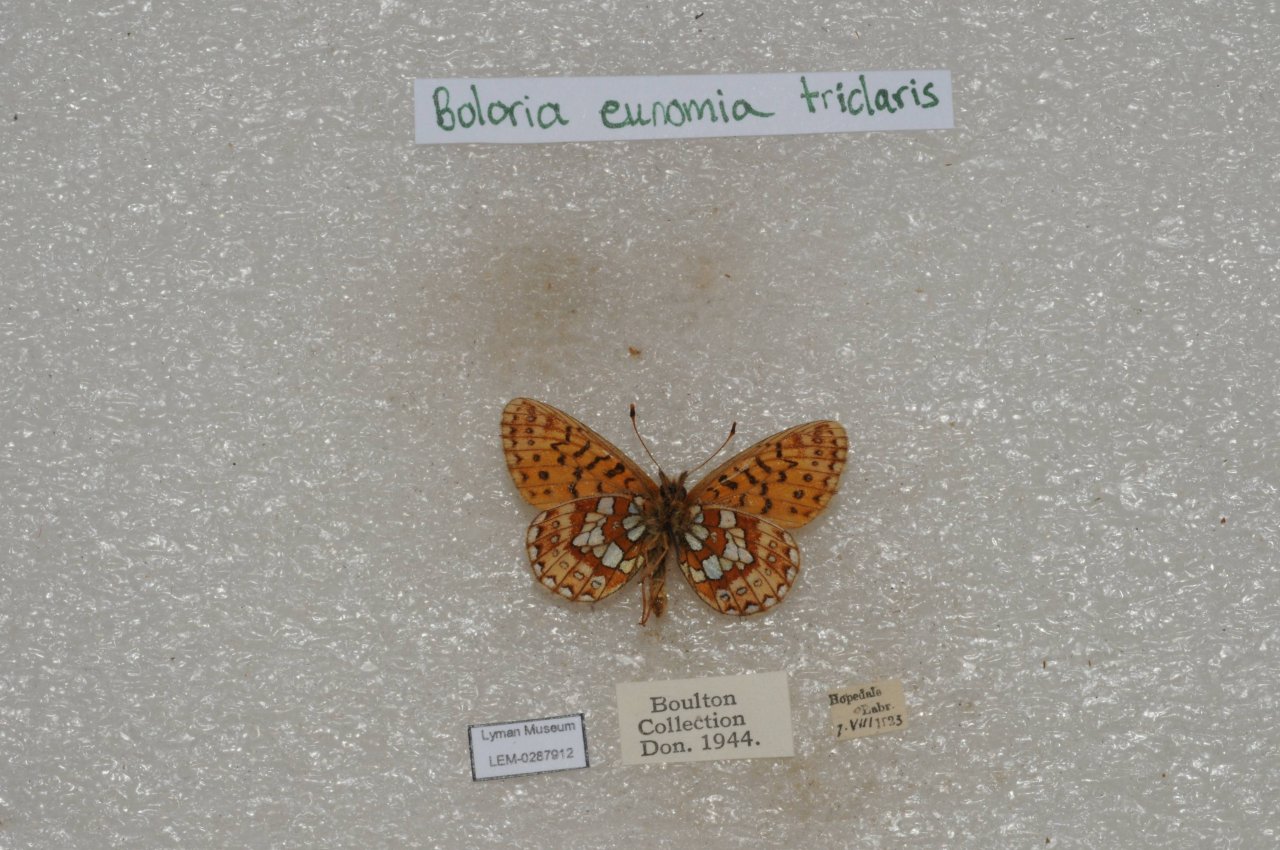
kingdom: Animalia
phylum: Arthropoda
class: Insecta
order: Lepidoptera
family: Nymphalidae
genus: Boloria
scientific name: Boloria eunomia
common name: Bog Fritillary
